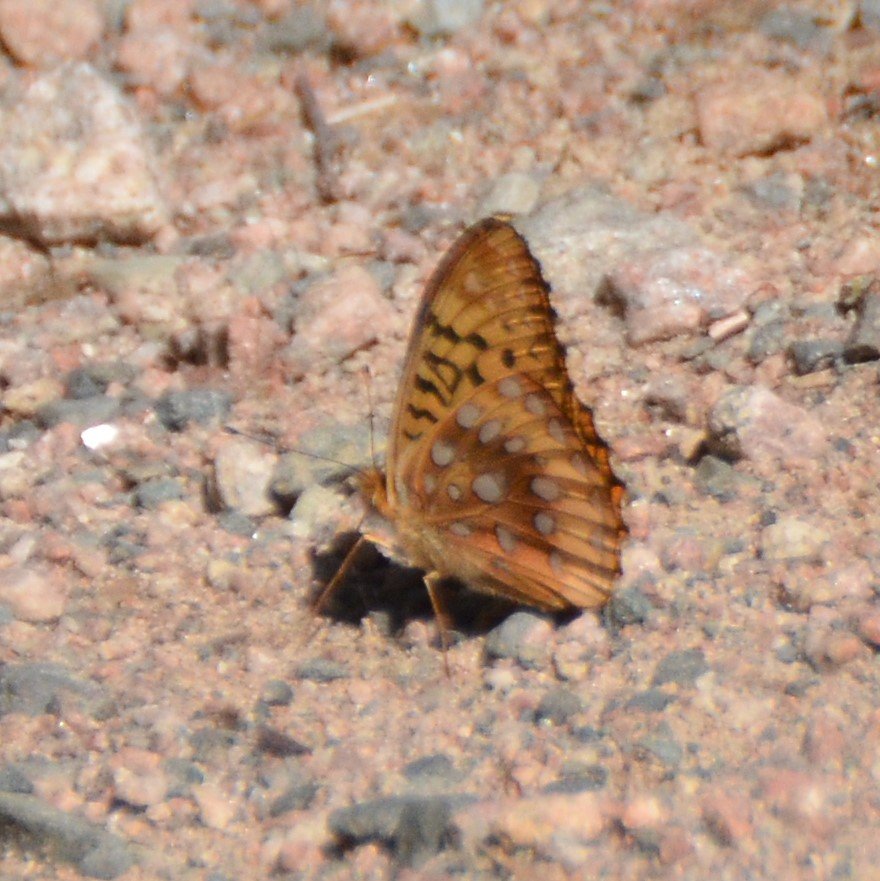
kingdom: Animalia
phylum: Arthropoda
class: Insecta
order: Lepidoptera
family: Nymphalidae
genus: Speyeria
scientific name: Speyeria cybele
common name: Great Spangled Fritillary
